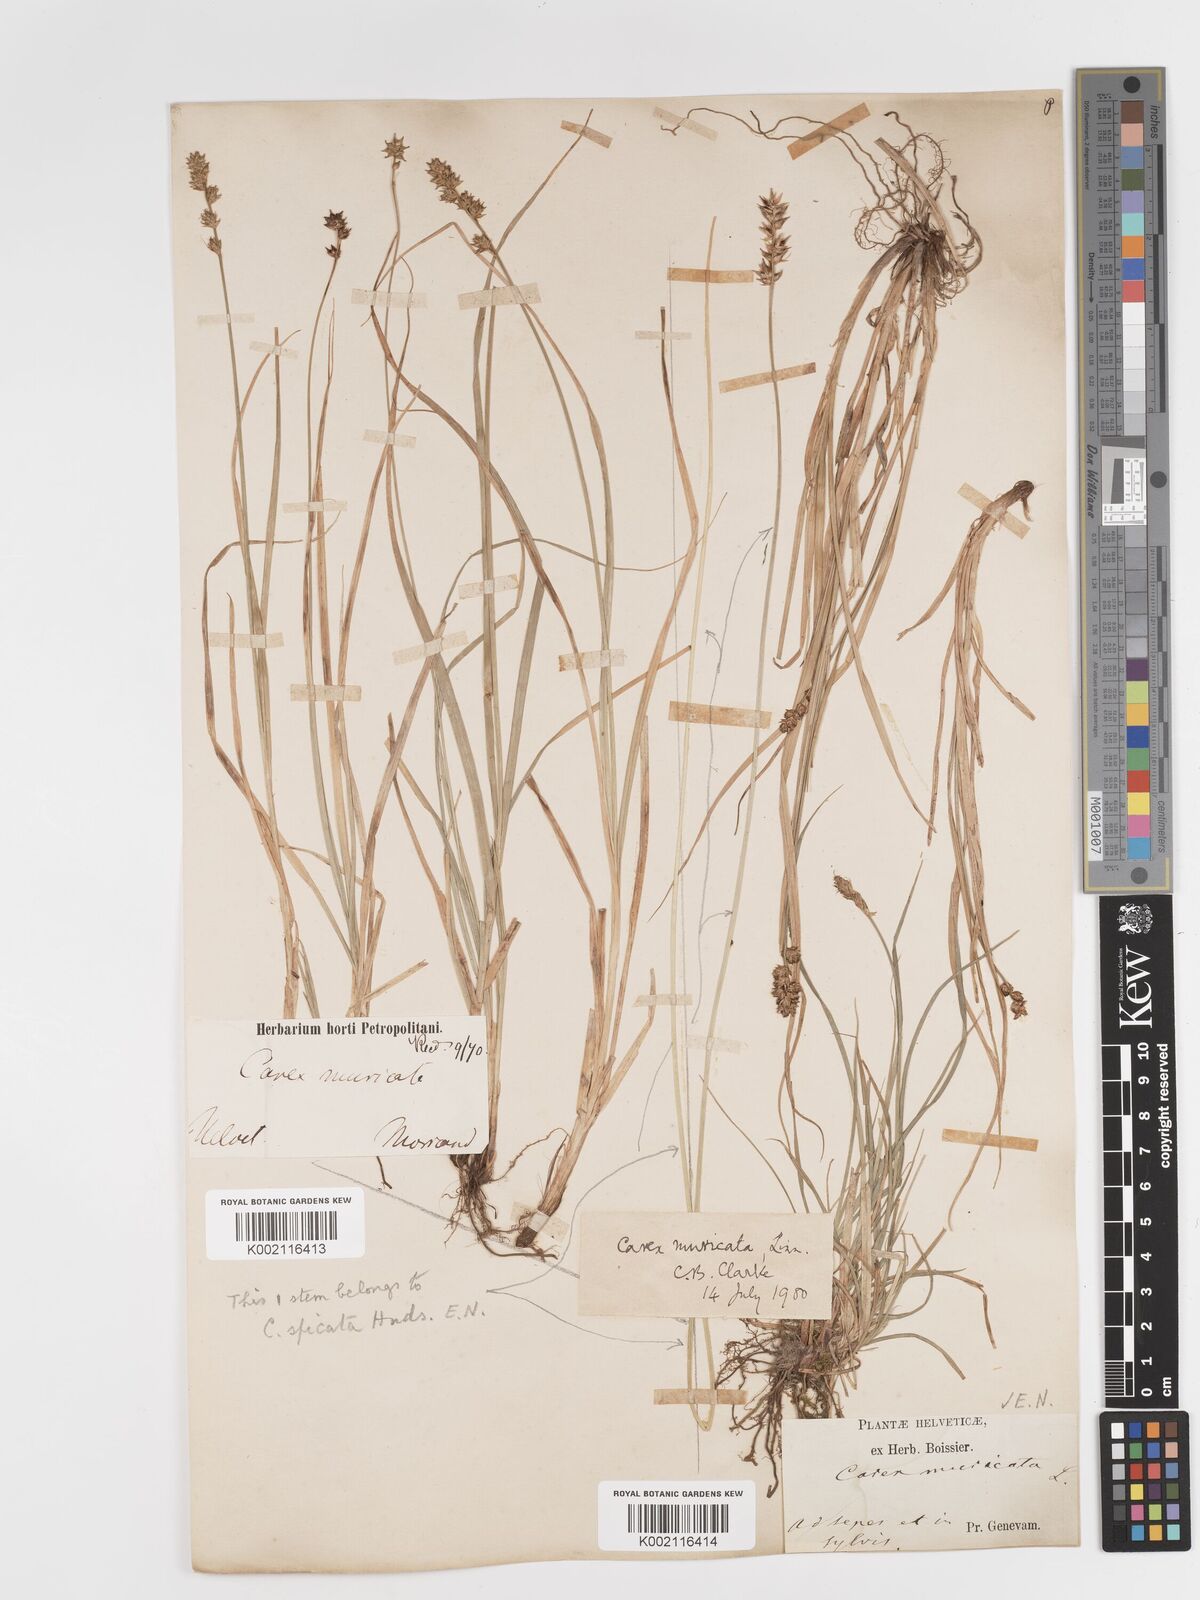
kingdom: Plantae
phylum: Tracheophyta
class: Liliopsida
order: Poales
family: Cyperaceae
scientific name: Cyperaceae
